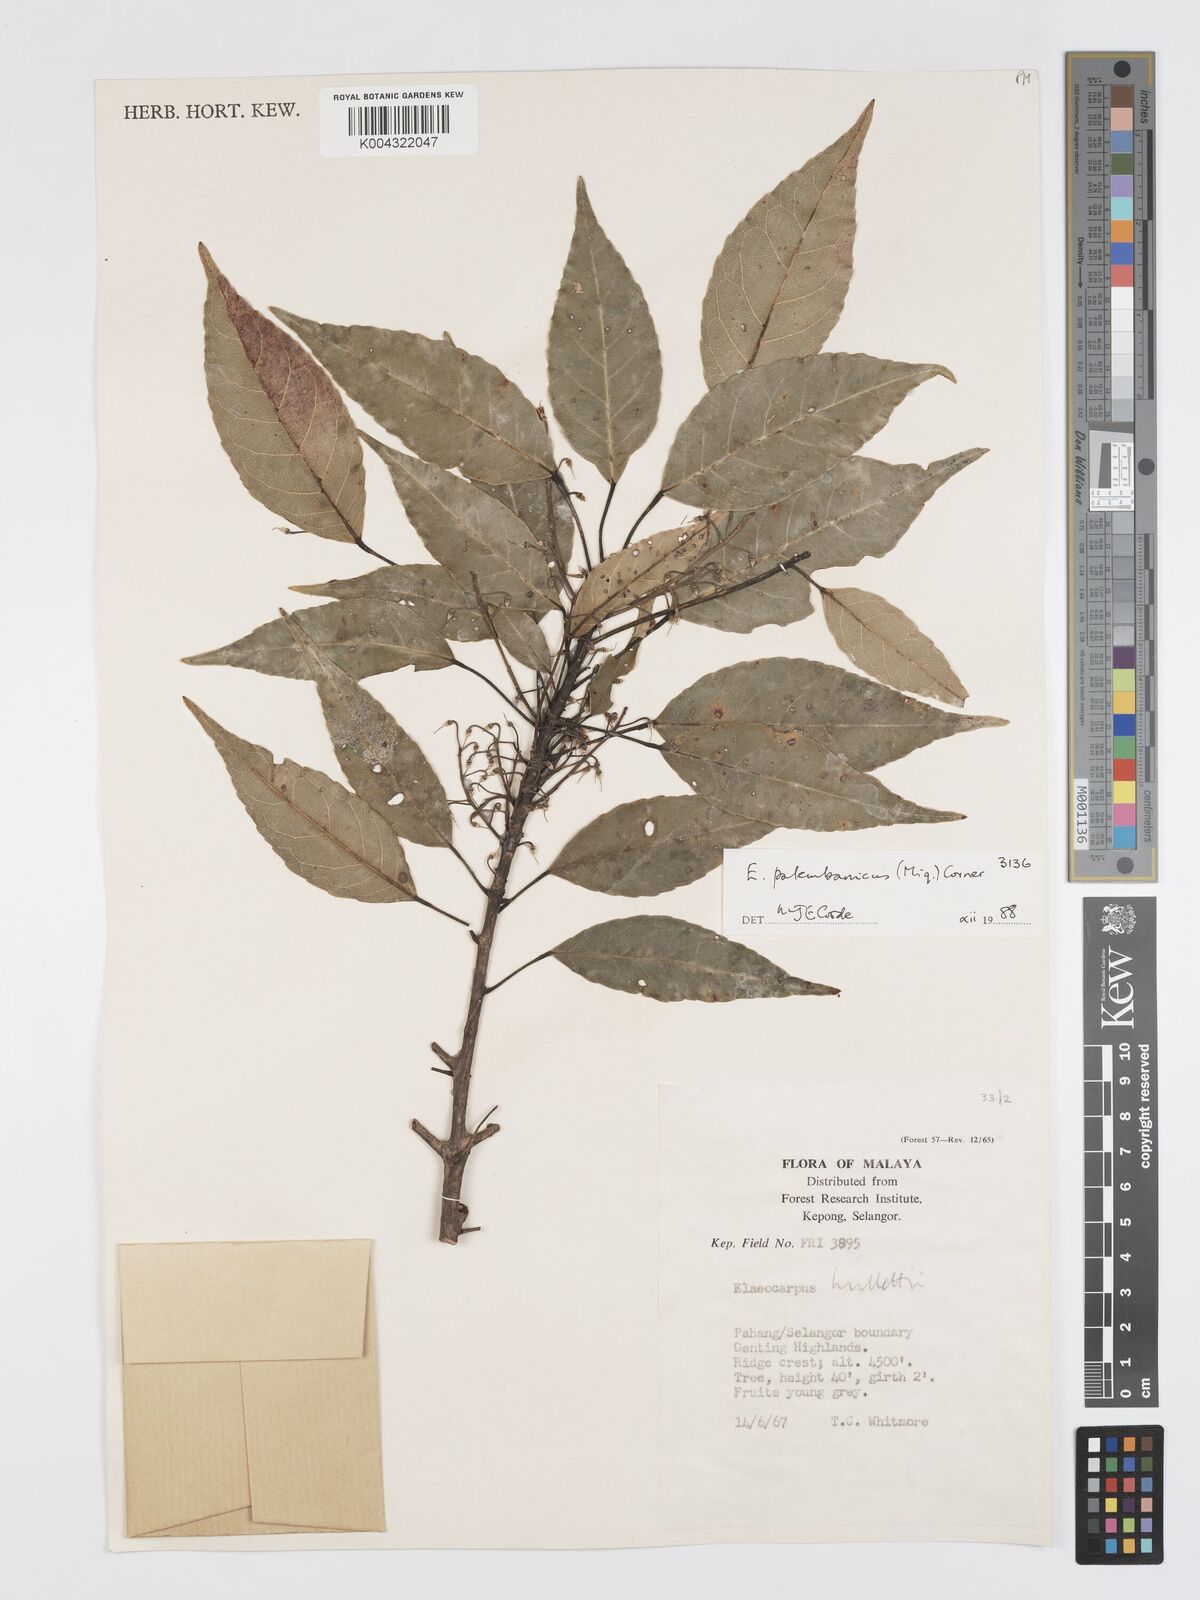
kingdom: Plantae
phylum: Tracheophyta
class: Magnoliopsida
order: Oxalidales
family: Elaeocarpaceae
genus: Elaeocarpus
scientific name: Elaeocarpus palembanicus
